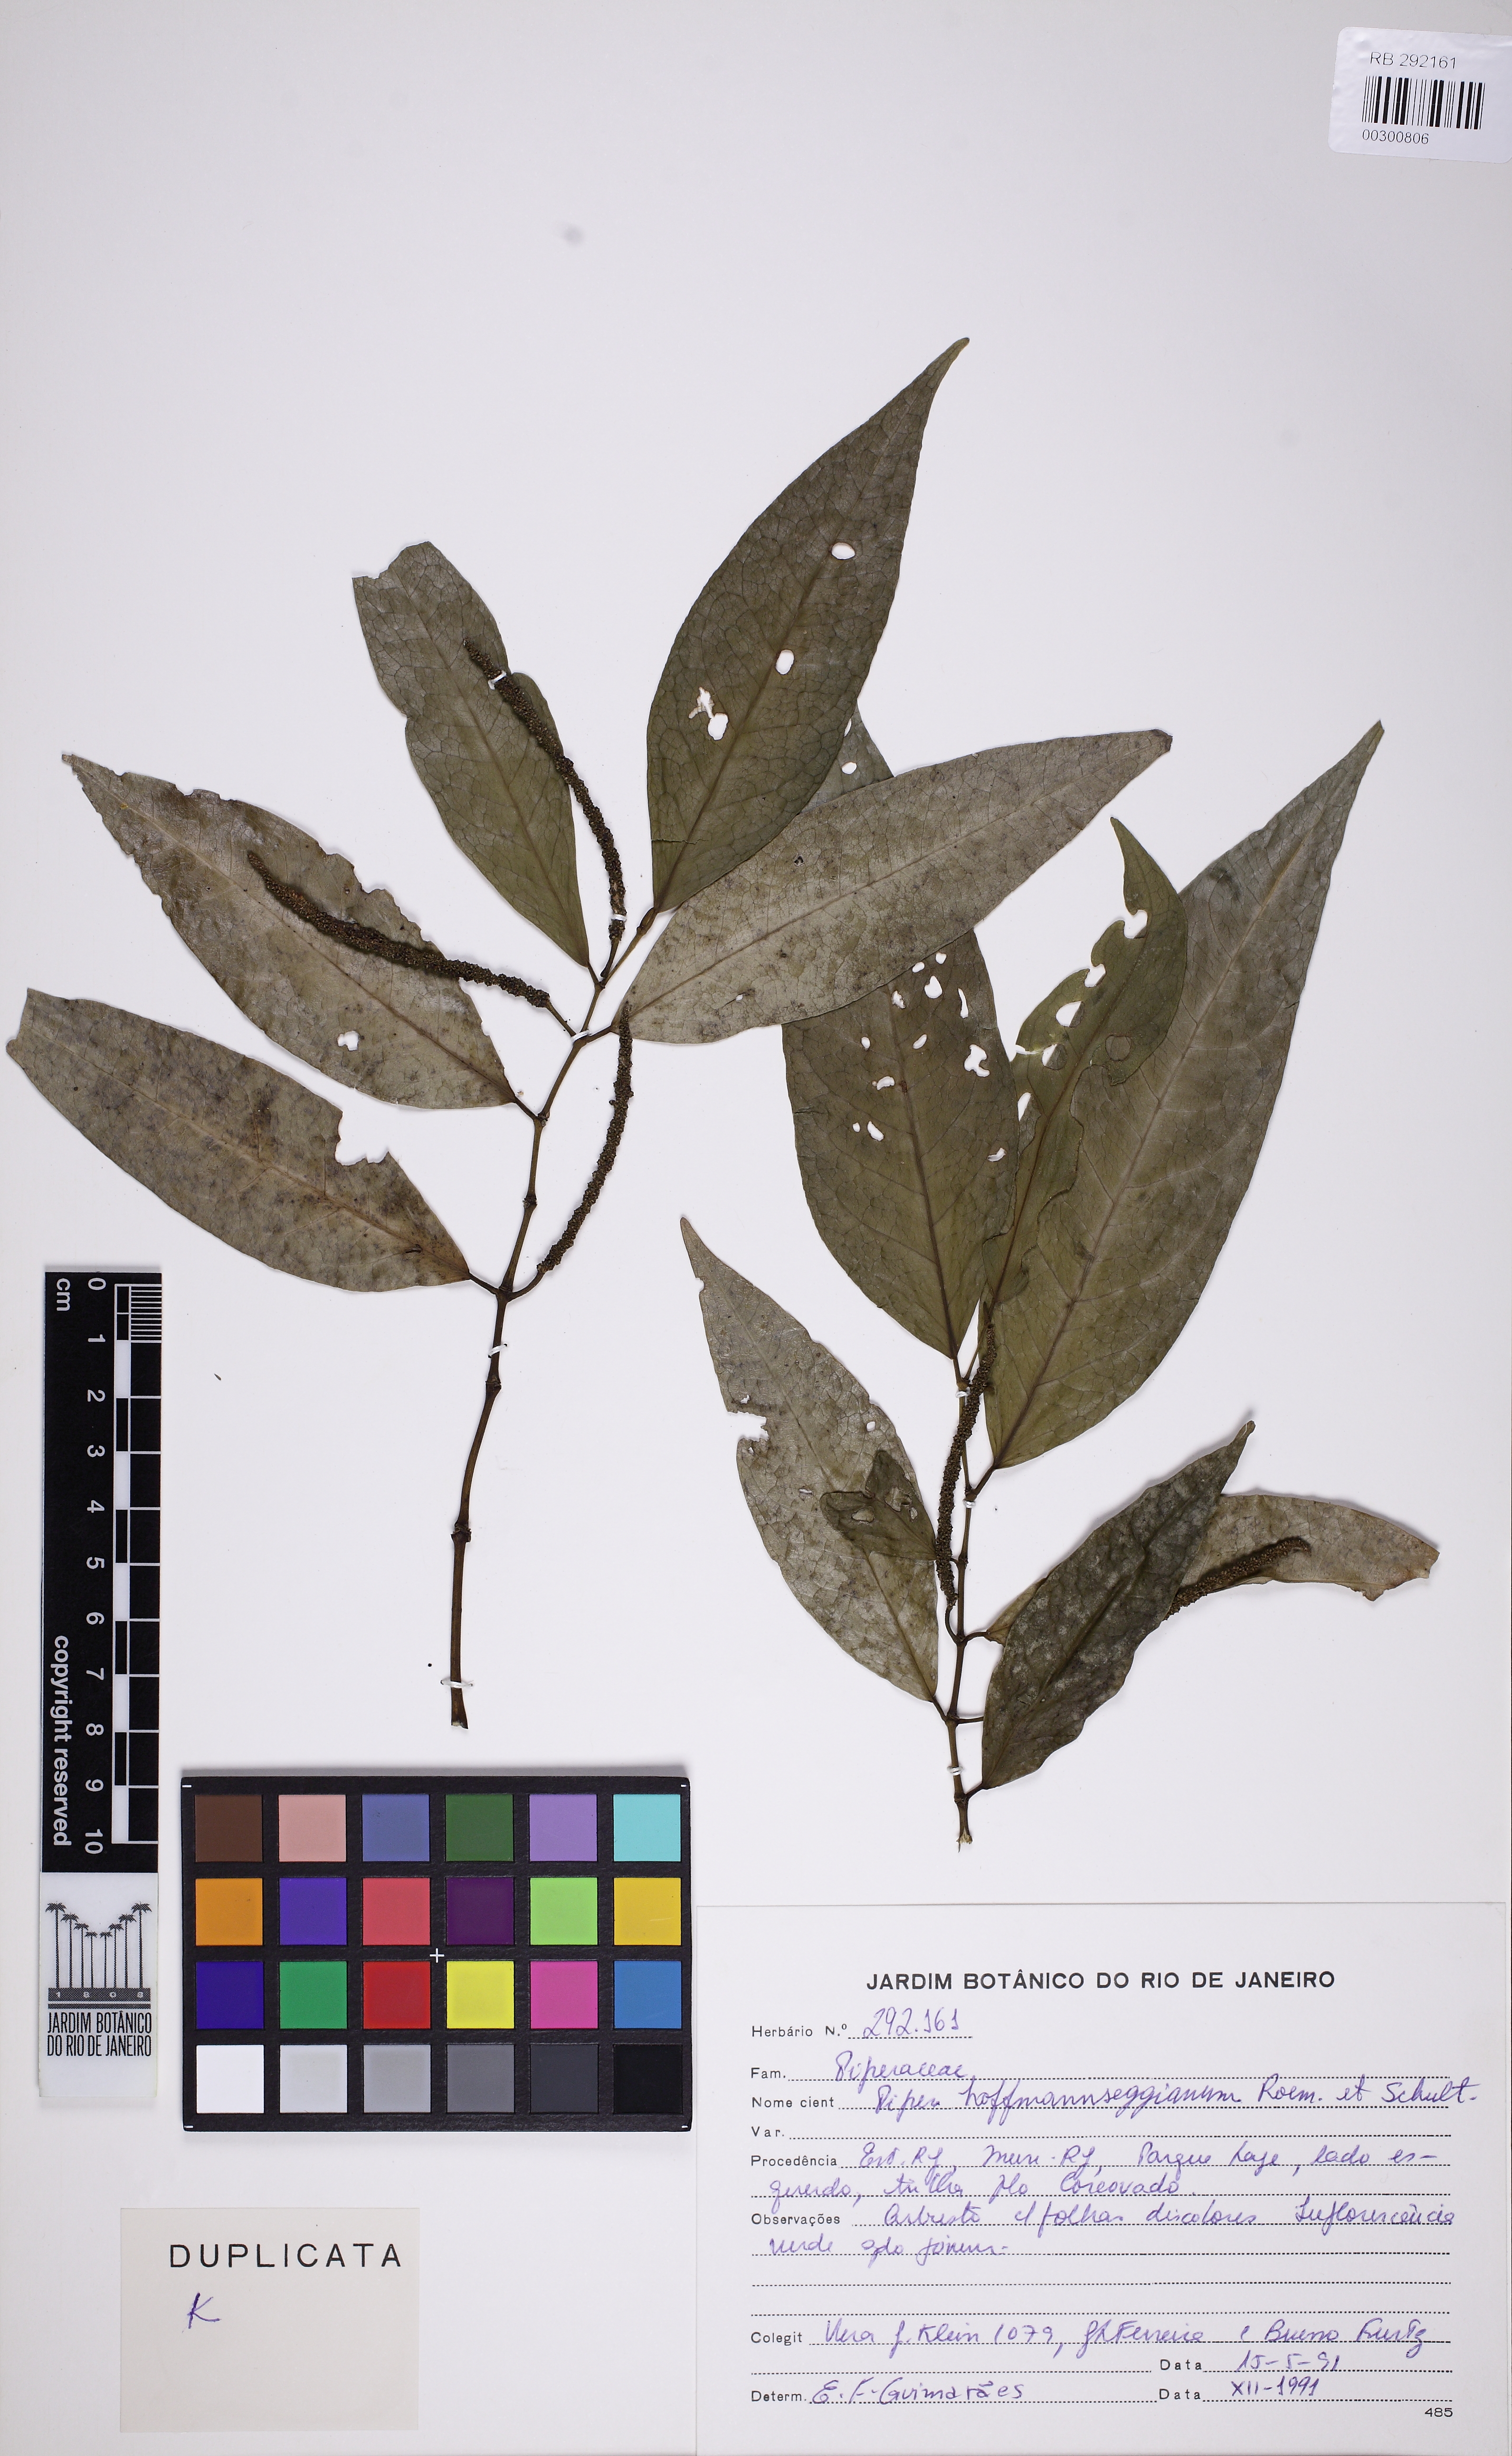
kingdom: Plantae
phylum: Tracheophyta
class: Magnoliopsida
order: Piperales
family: Piperaceae
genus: Piper
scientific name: Piper hoffmannseggianum
